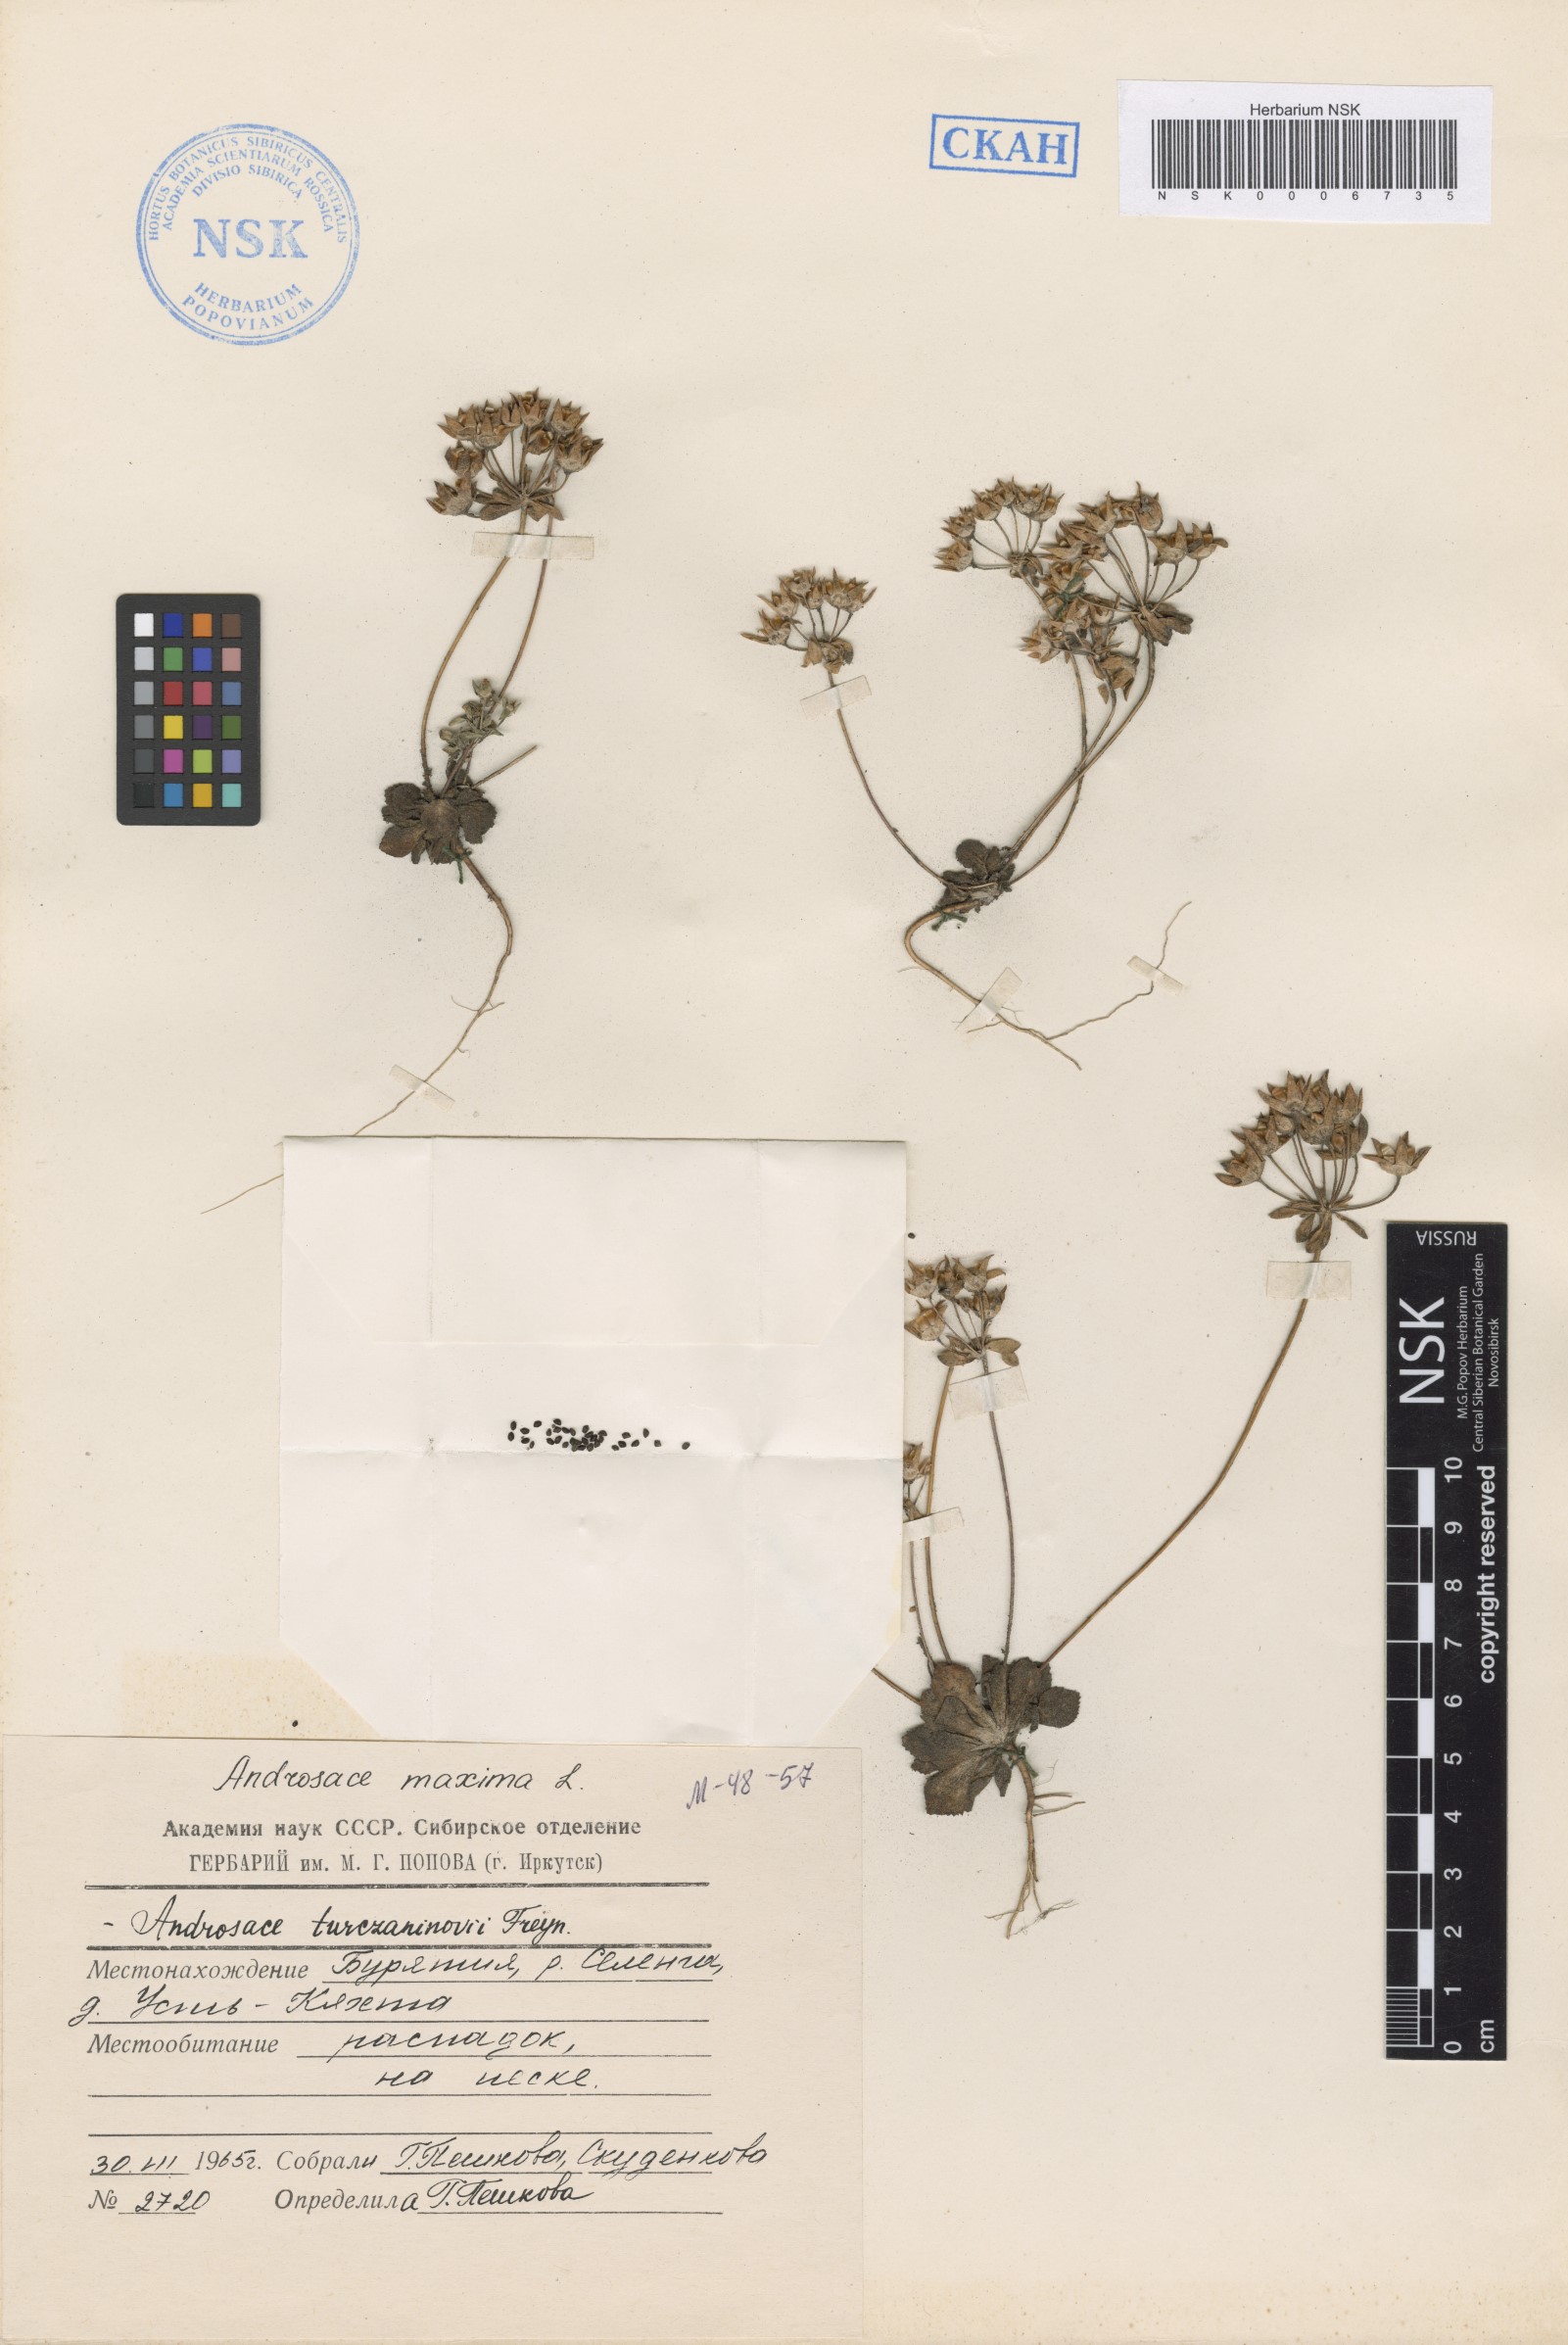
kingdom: Plantae
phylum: Tracheophyta
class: Magnoliopsida
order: Ericales
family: Primulaceae
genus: Androsace
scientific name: Androsace maxima
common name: Annual androsace
